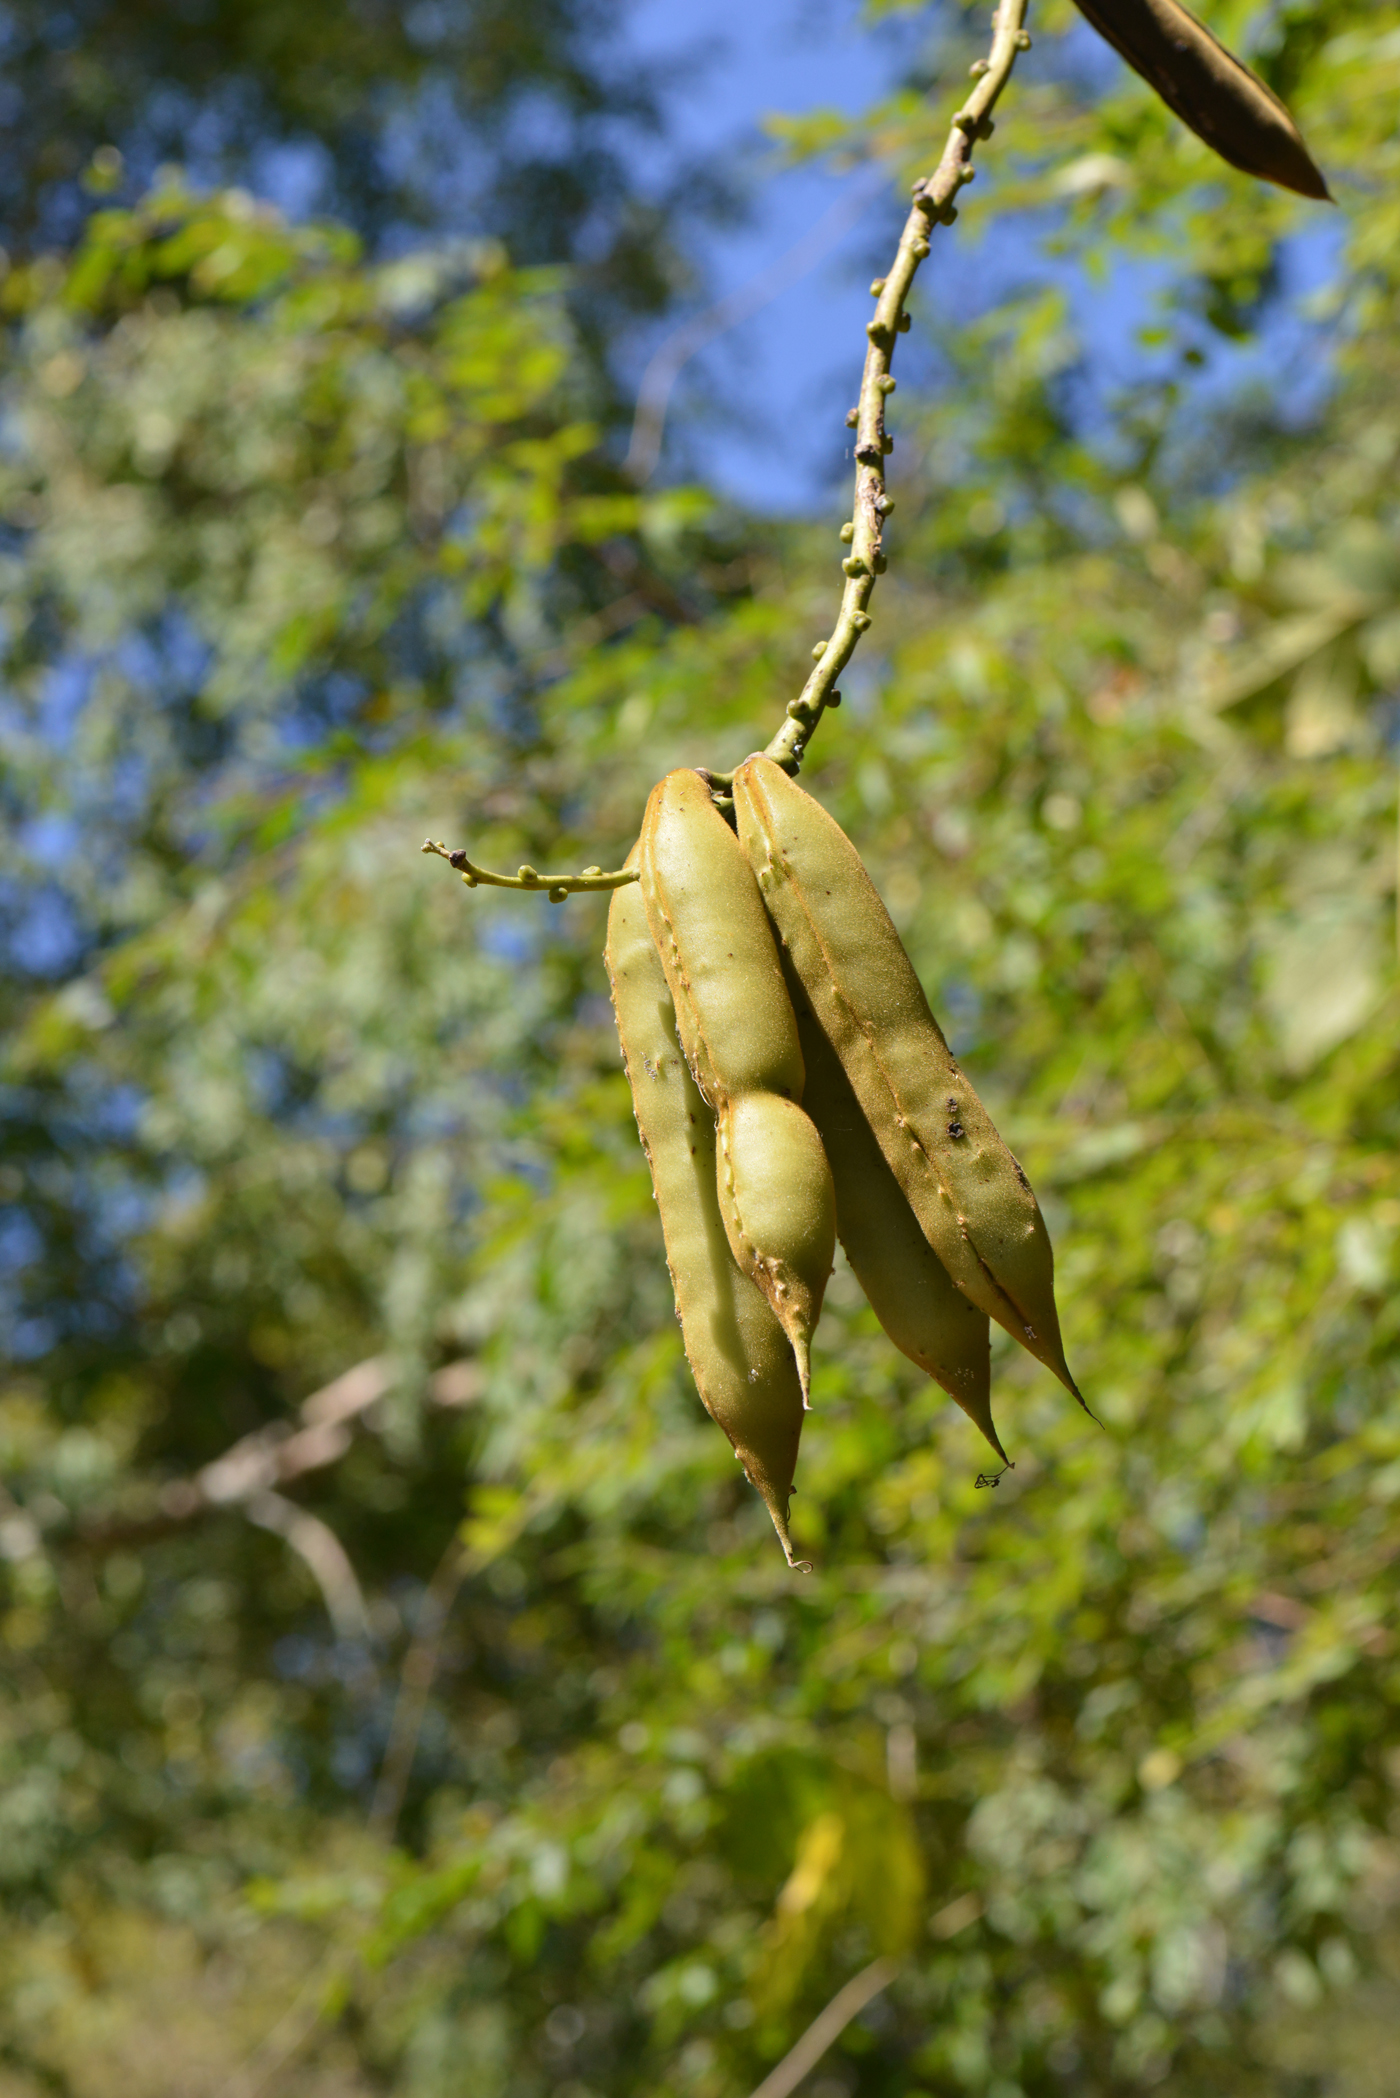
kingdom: Plantae
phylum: Tracheophyta
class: Magnoliopsida
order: Fabales
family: Fabaceae
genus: Dysolobium
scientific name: Dysolobium grande
